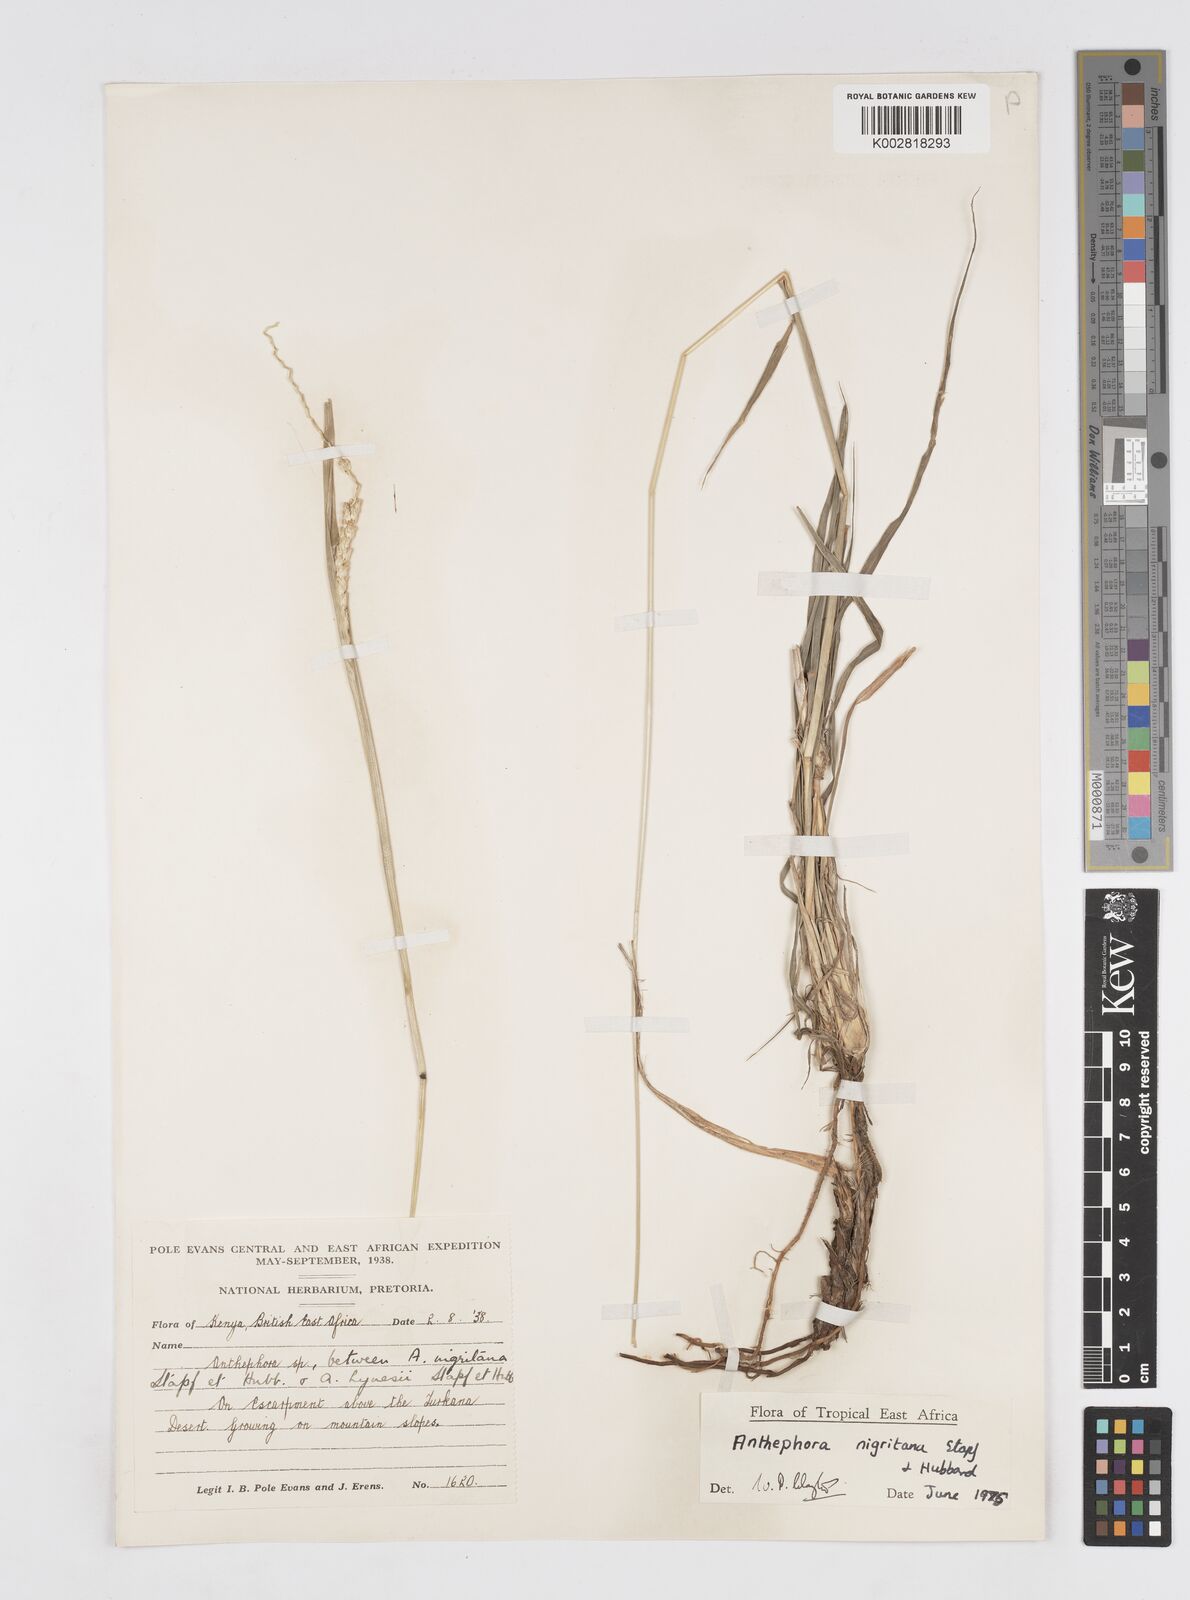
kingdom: Plantae
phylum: Tracheophyta
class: Liliopsida
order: Poales
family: Poaceae
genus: Anthephora
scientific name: Anthephora nigritana
